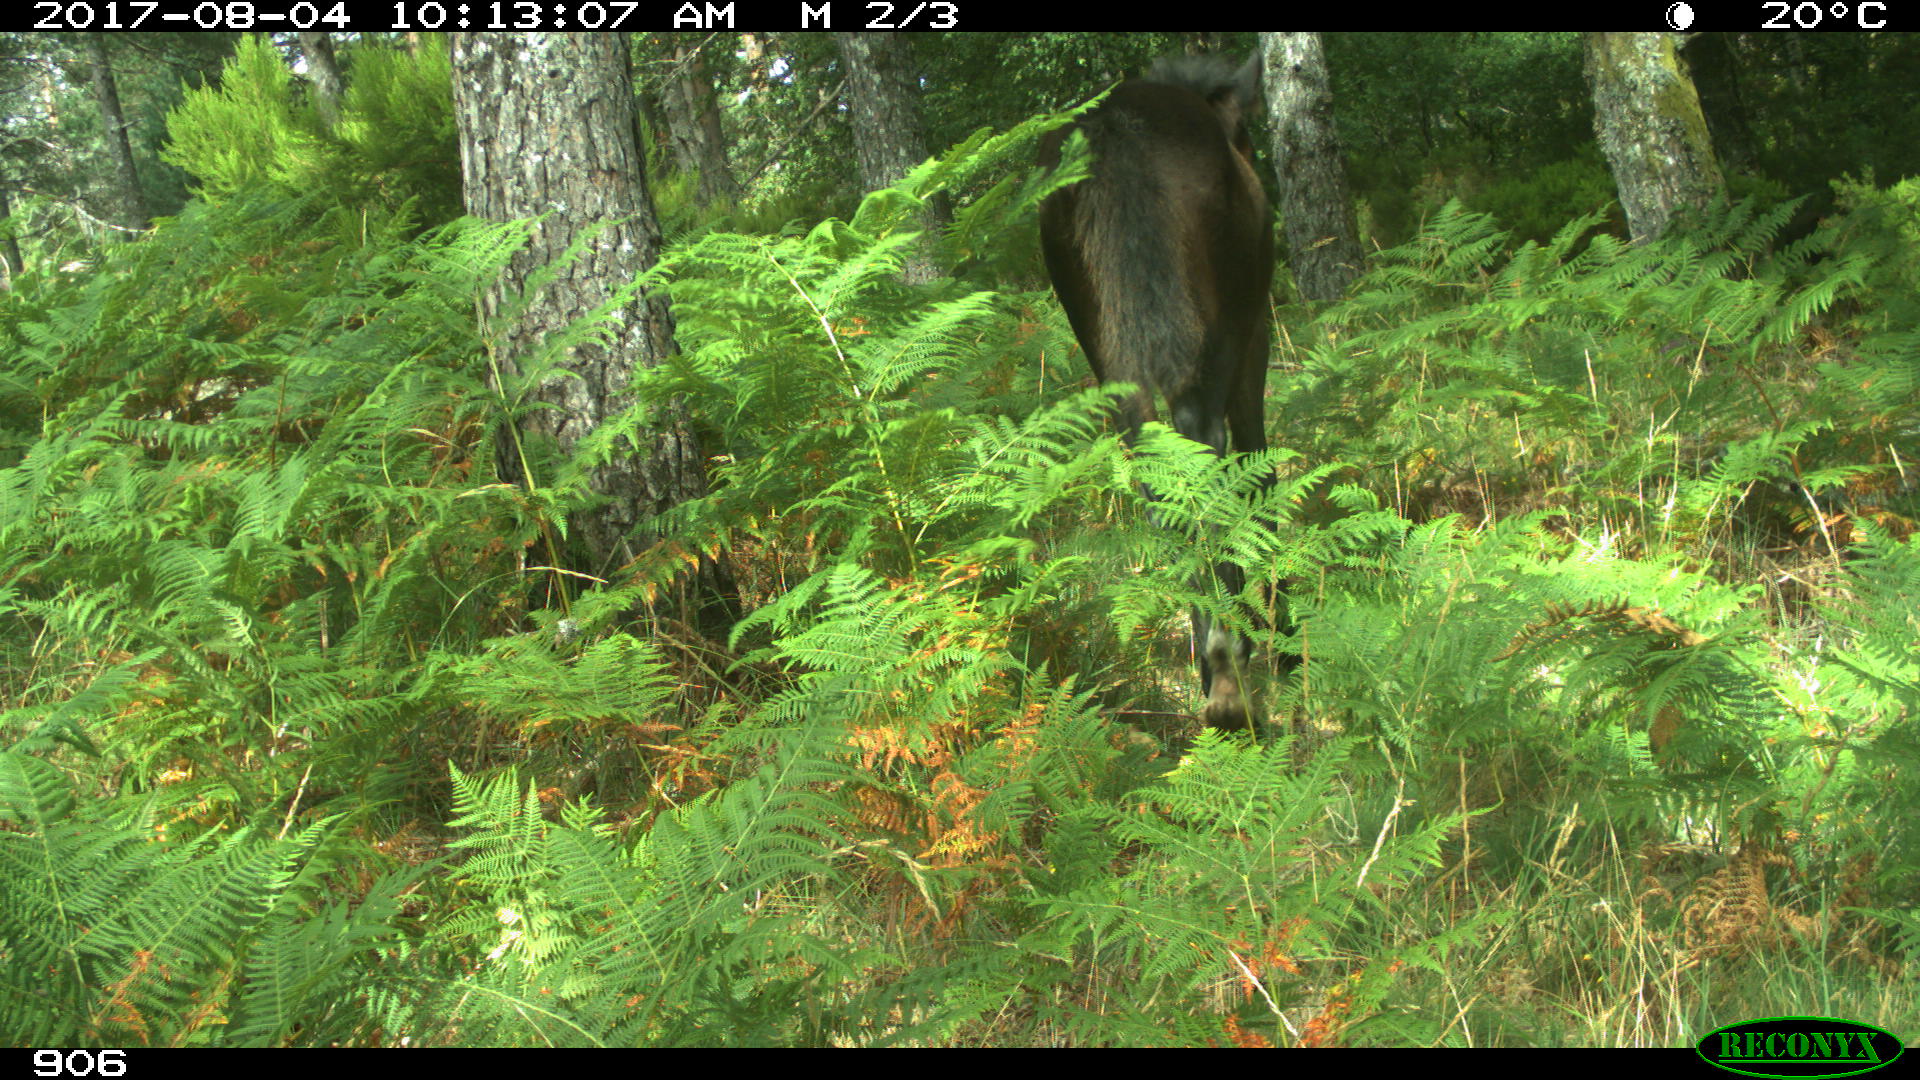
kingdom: Animalia
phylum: Chordata
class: Mammalia
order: Perissodactyla
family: Equidae
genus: Equus
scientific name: Equus caballus
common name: Horse
